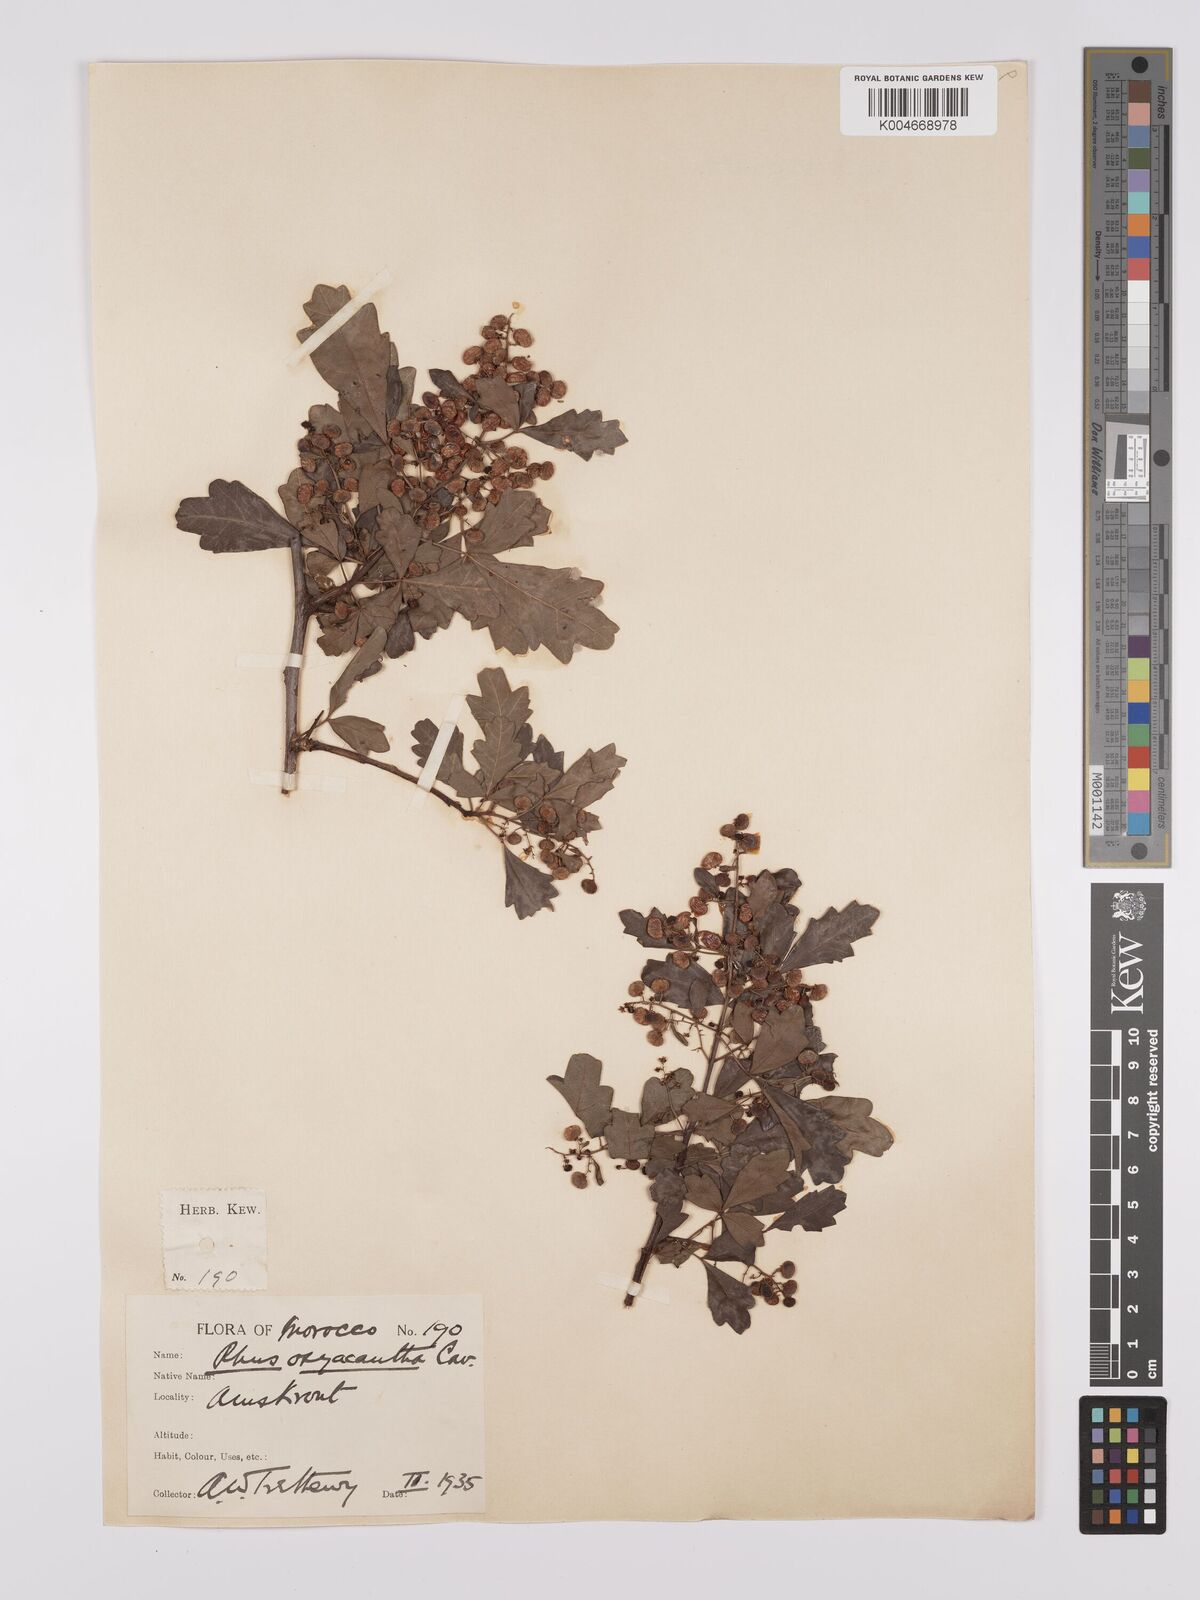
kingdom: Plantae
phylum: Tracheophyta
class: Magnoliopsida
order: Sapindales
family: Anacardiaceae
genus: Rhus
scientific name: Rhus
